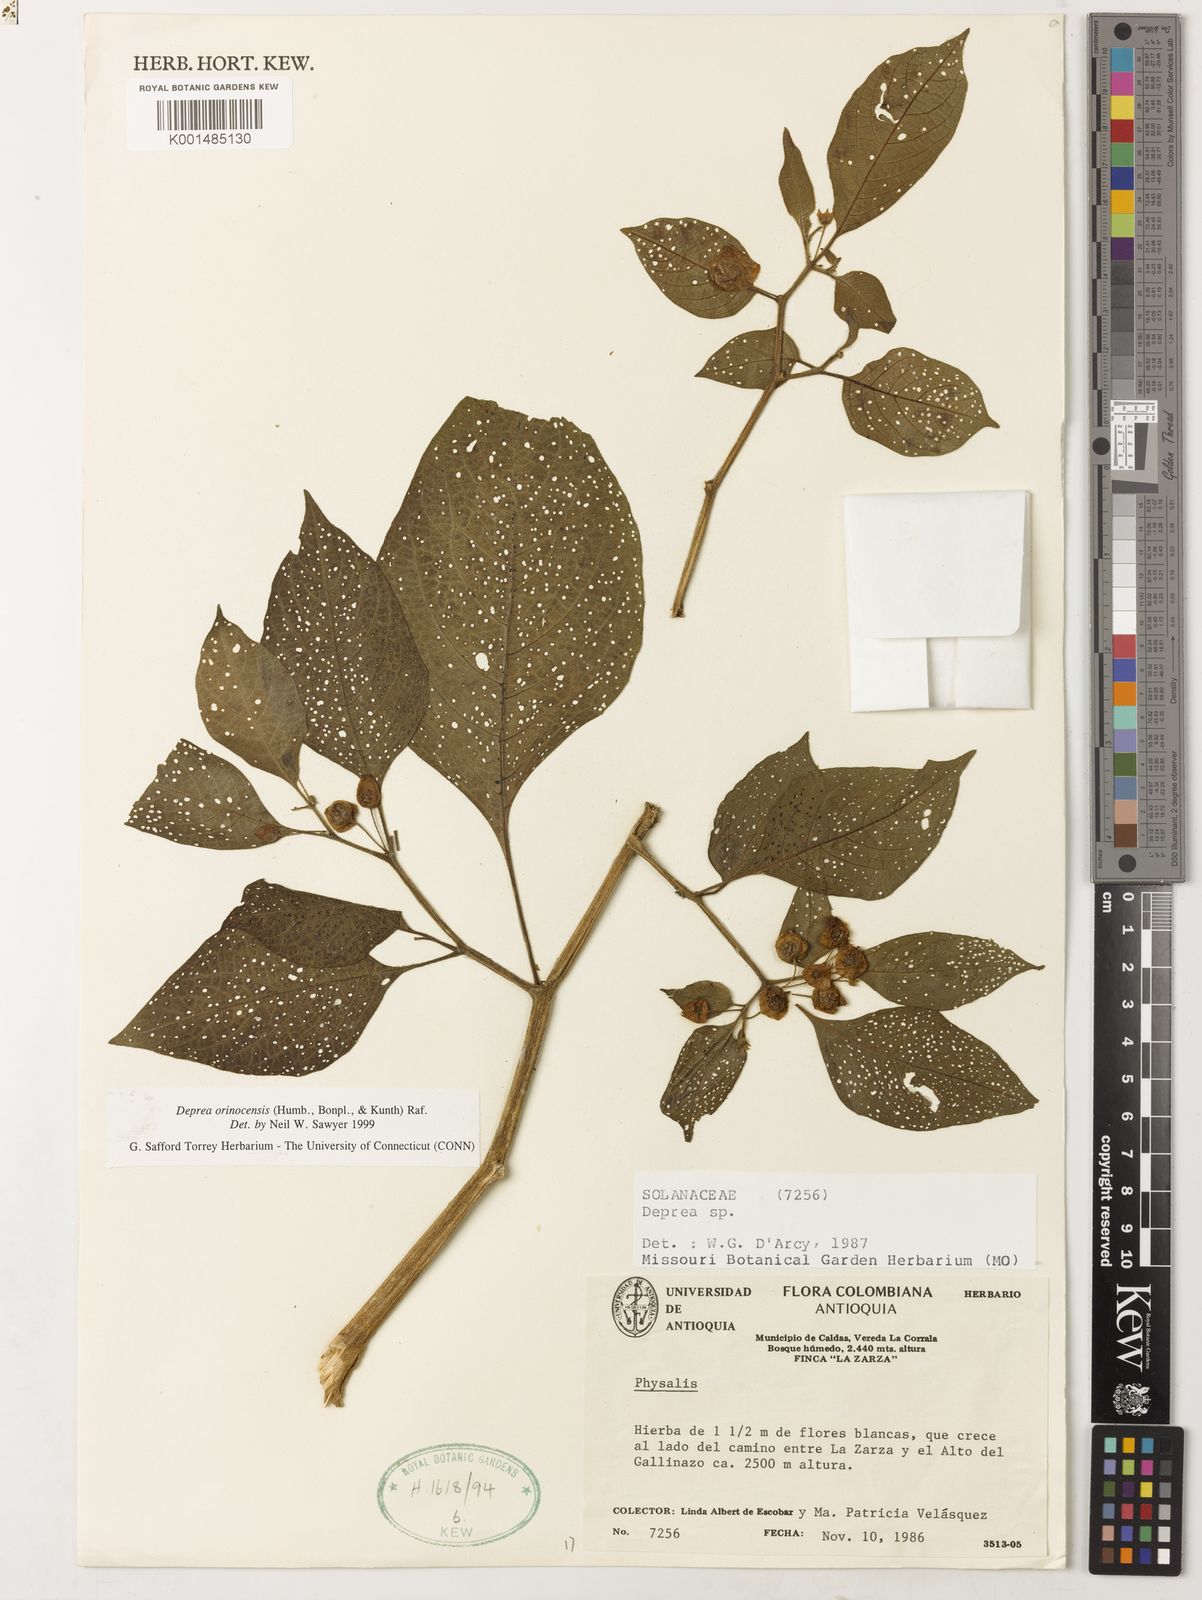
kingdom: Plantae
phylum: Tracheophyta
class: Magnoliopsida
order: Solanales
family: Solanaceae
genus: Deprea
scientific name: Deprea orinocensis
